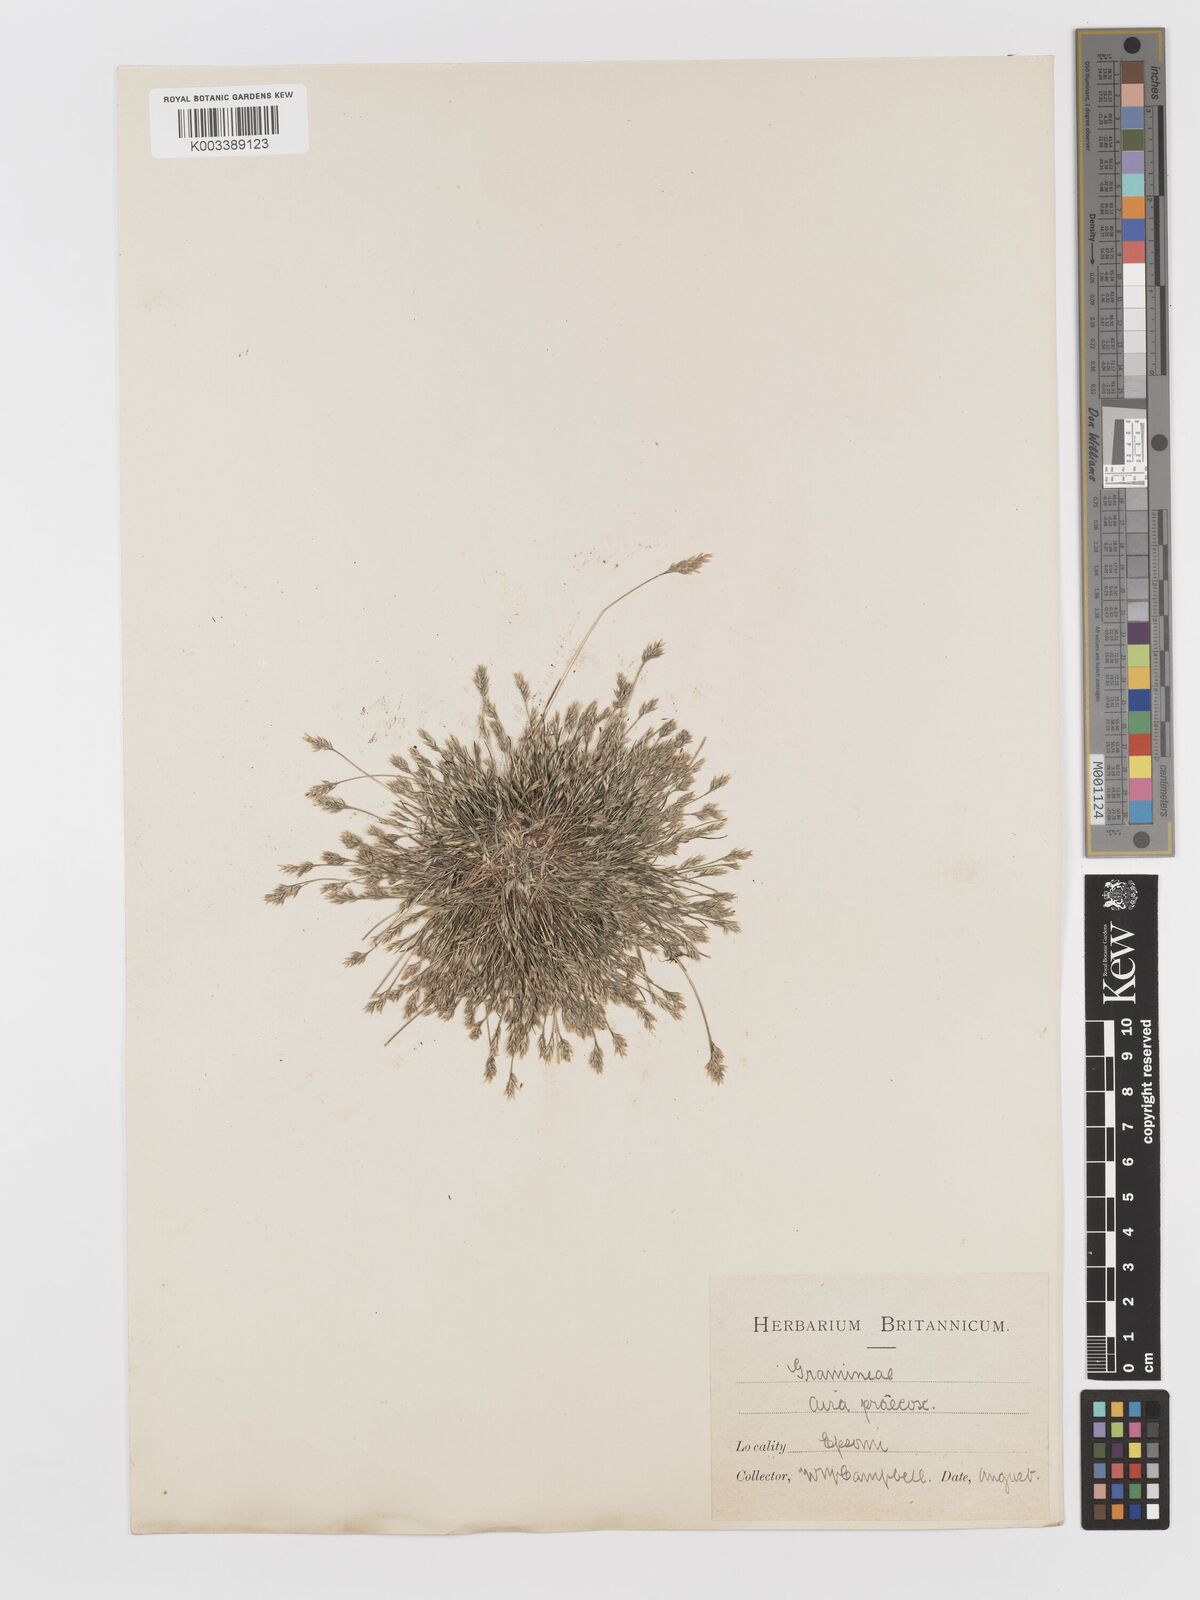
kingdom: Plantae
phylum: Tracheophyta
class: Liliopsida
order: Poales
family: Poaceae
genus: Aira
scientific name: Aira praecox
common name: Early hair-grass
